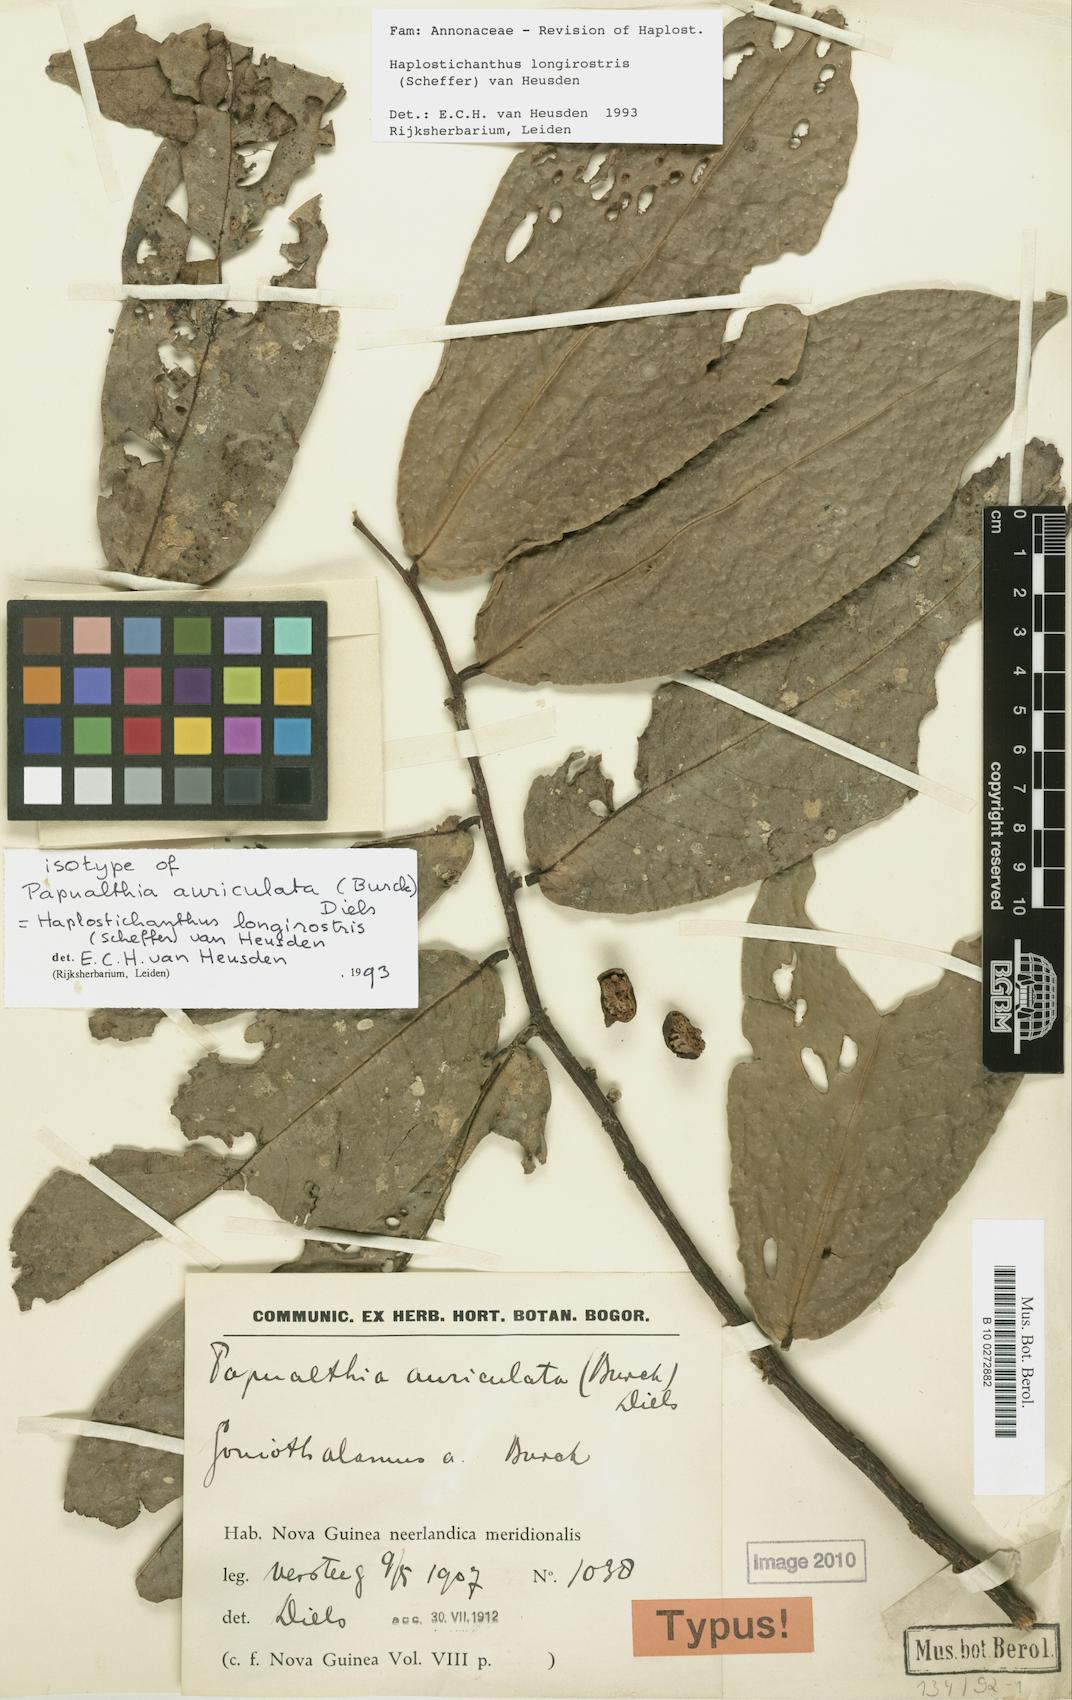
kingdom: Plantae
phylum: Tracheophyta
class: Magnoliopsida
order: Magnoliales
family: Annonaceae
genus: Haplostichanthus
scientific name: Haplostichanthus longirostris
